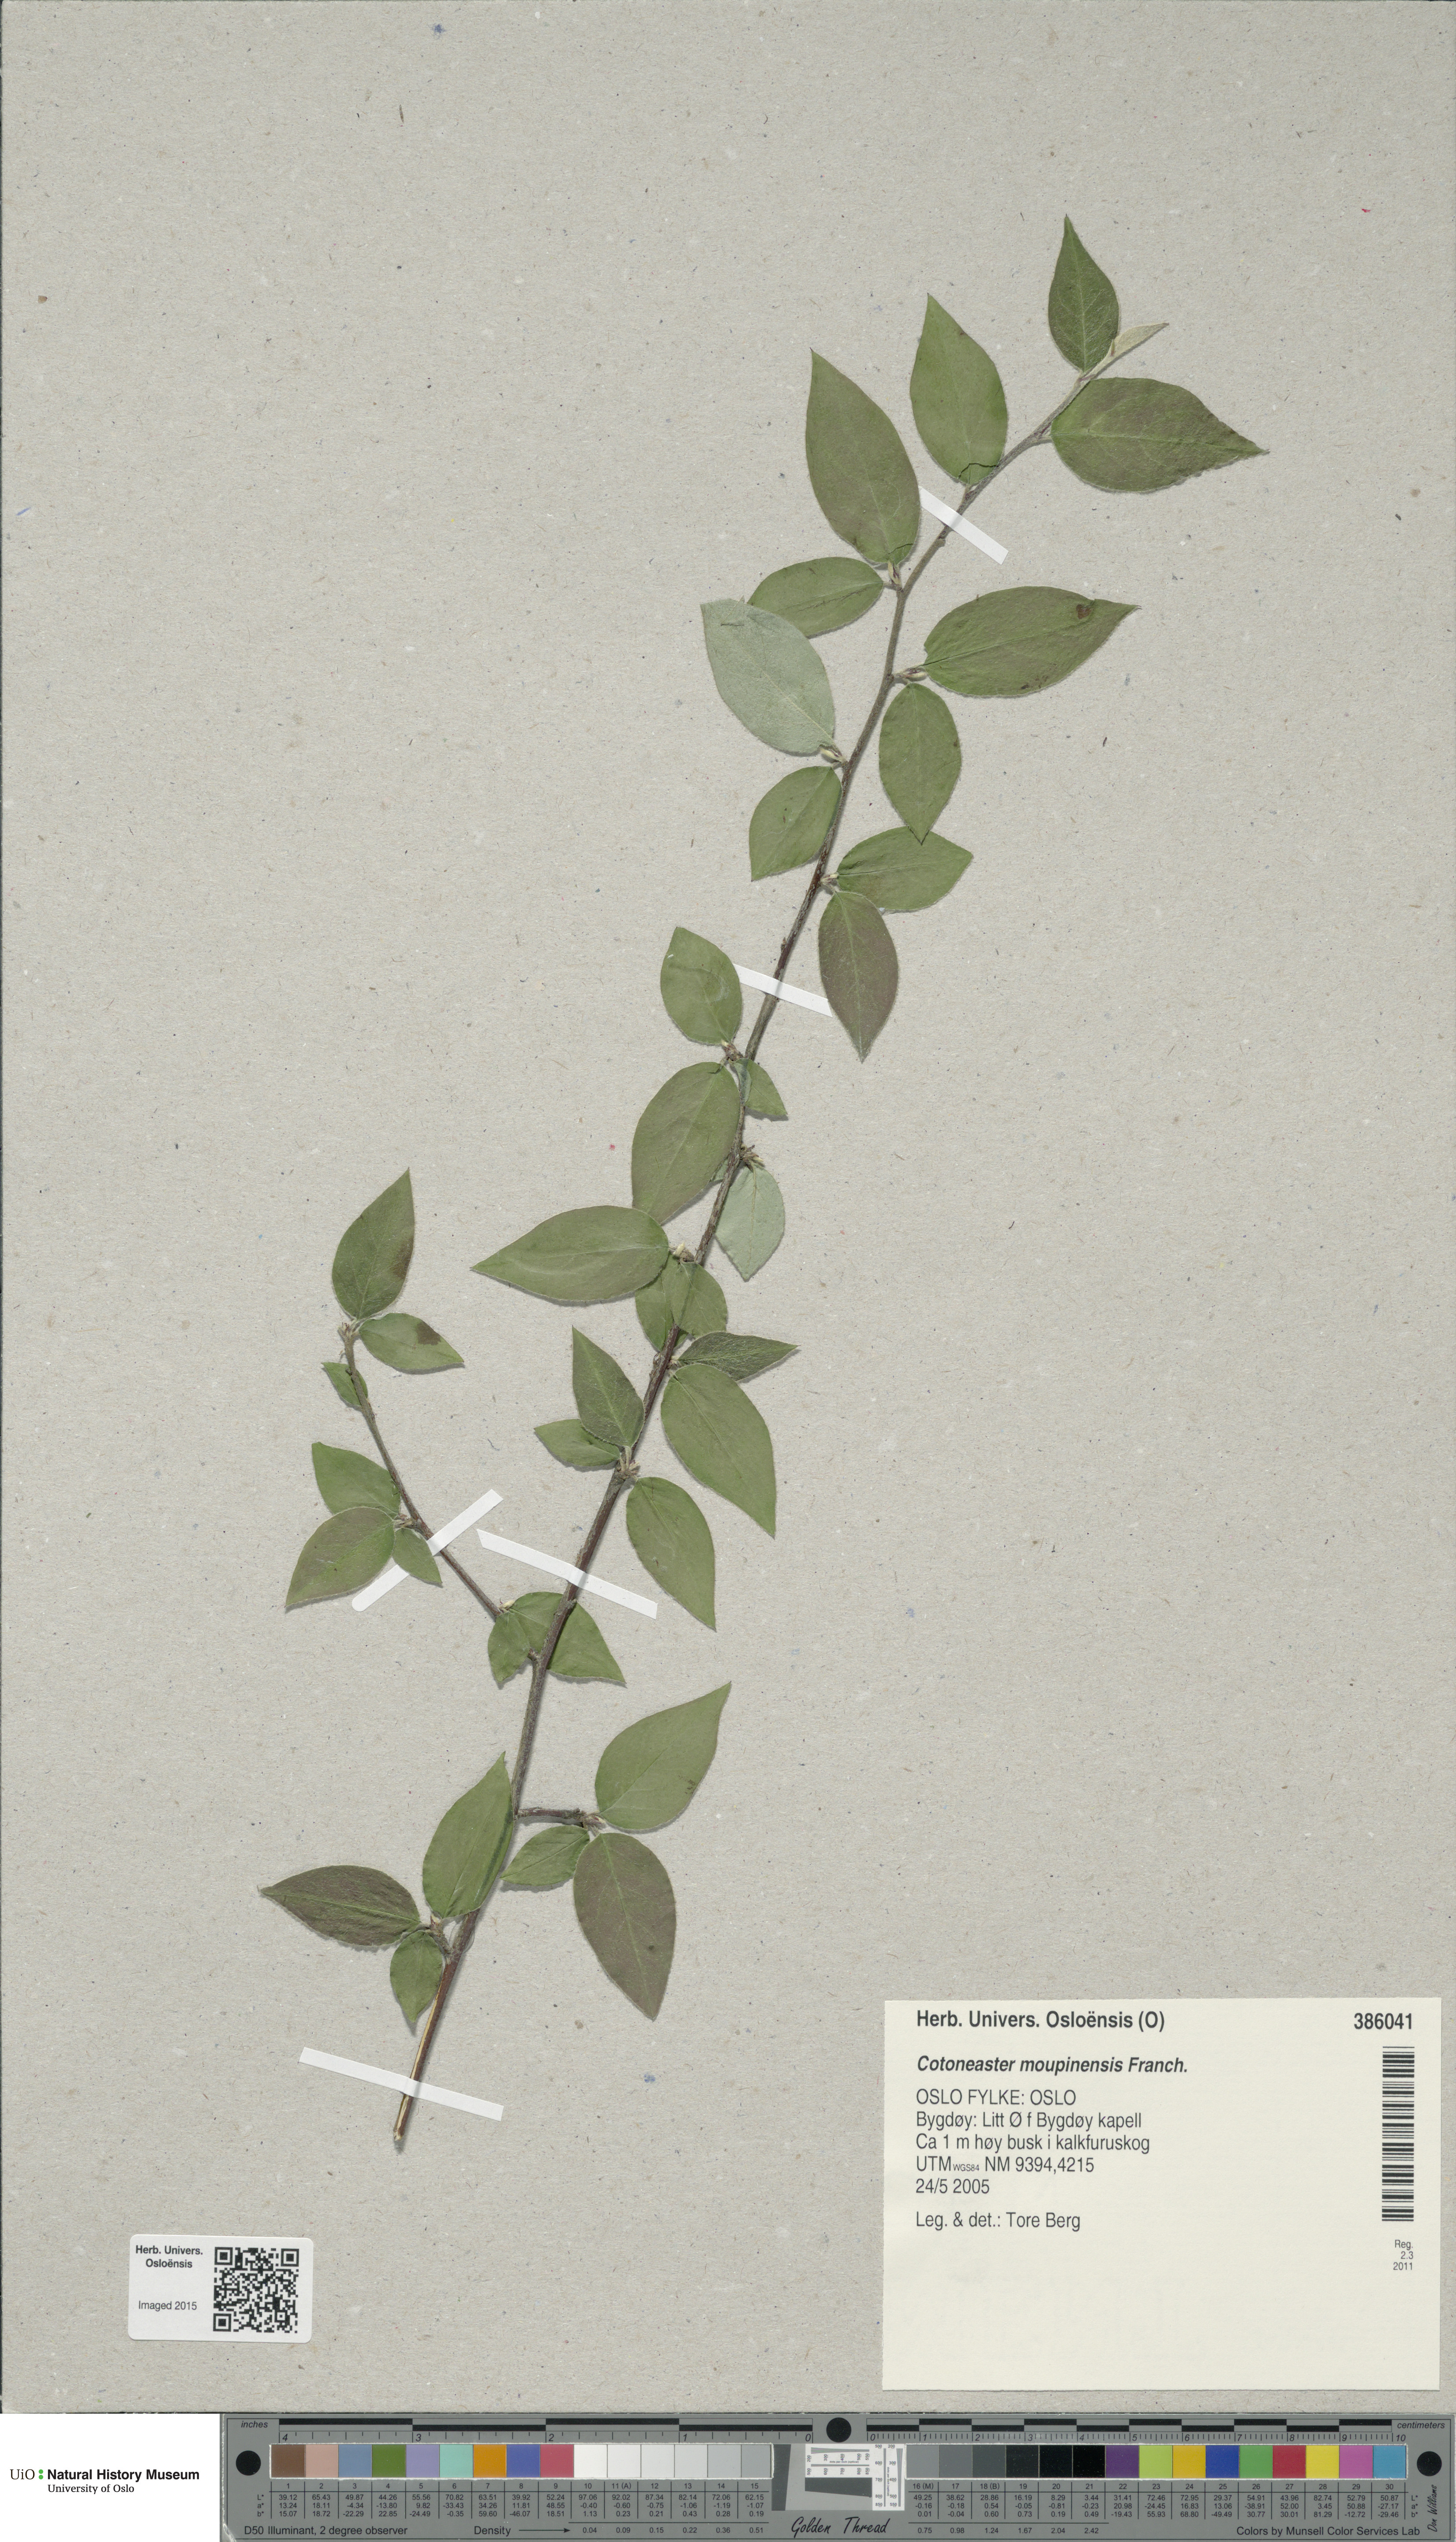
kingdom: Plantae
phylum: Tracheophyta
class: Magnoliopsida
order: Rosales
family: Rosaceae
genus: Cotoneaster
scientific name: Cotoneaster moupinensis
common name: Moupin cotoneaster
